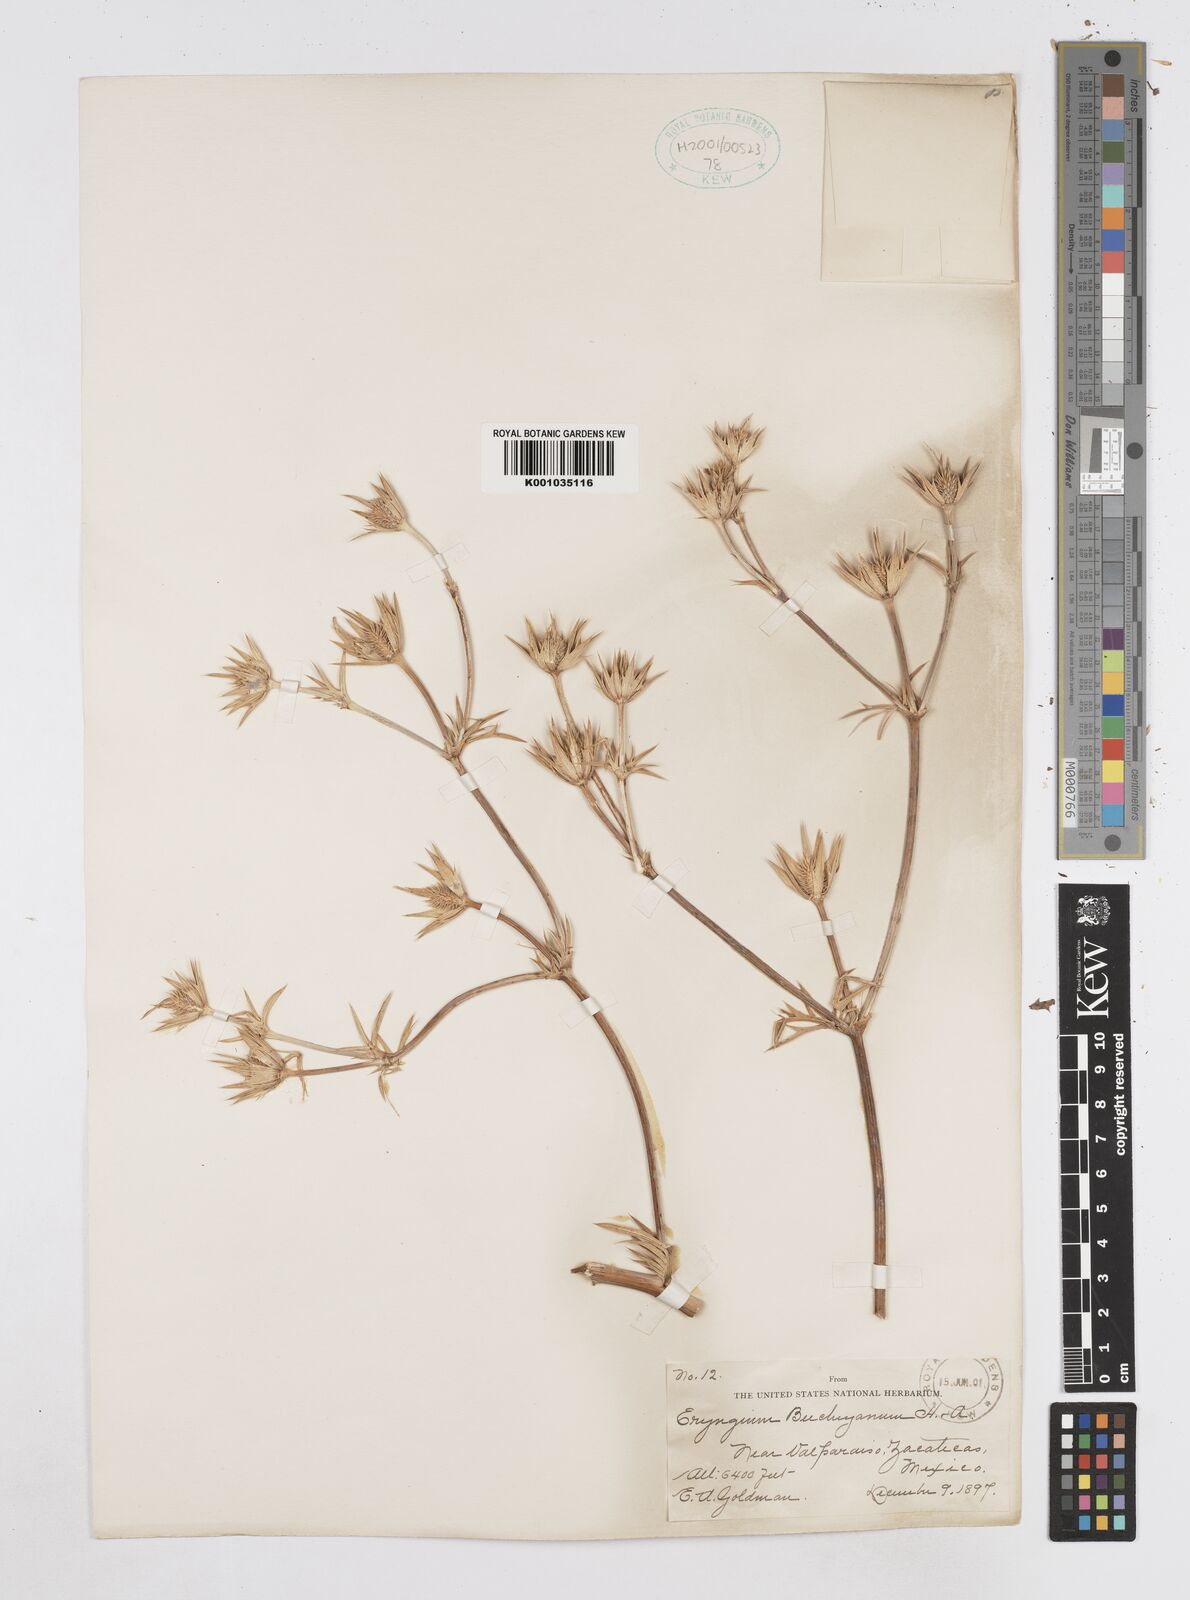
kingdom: Plantae
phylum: Tracheophyta
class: Magnoliopsida
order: Apiales
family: Apiaceae
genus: Eryngium
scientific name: Eryngium comosum
